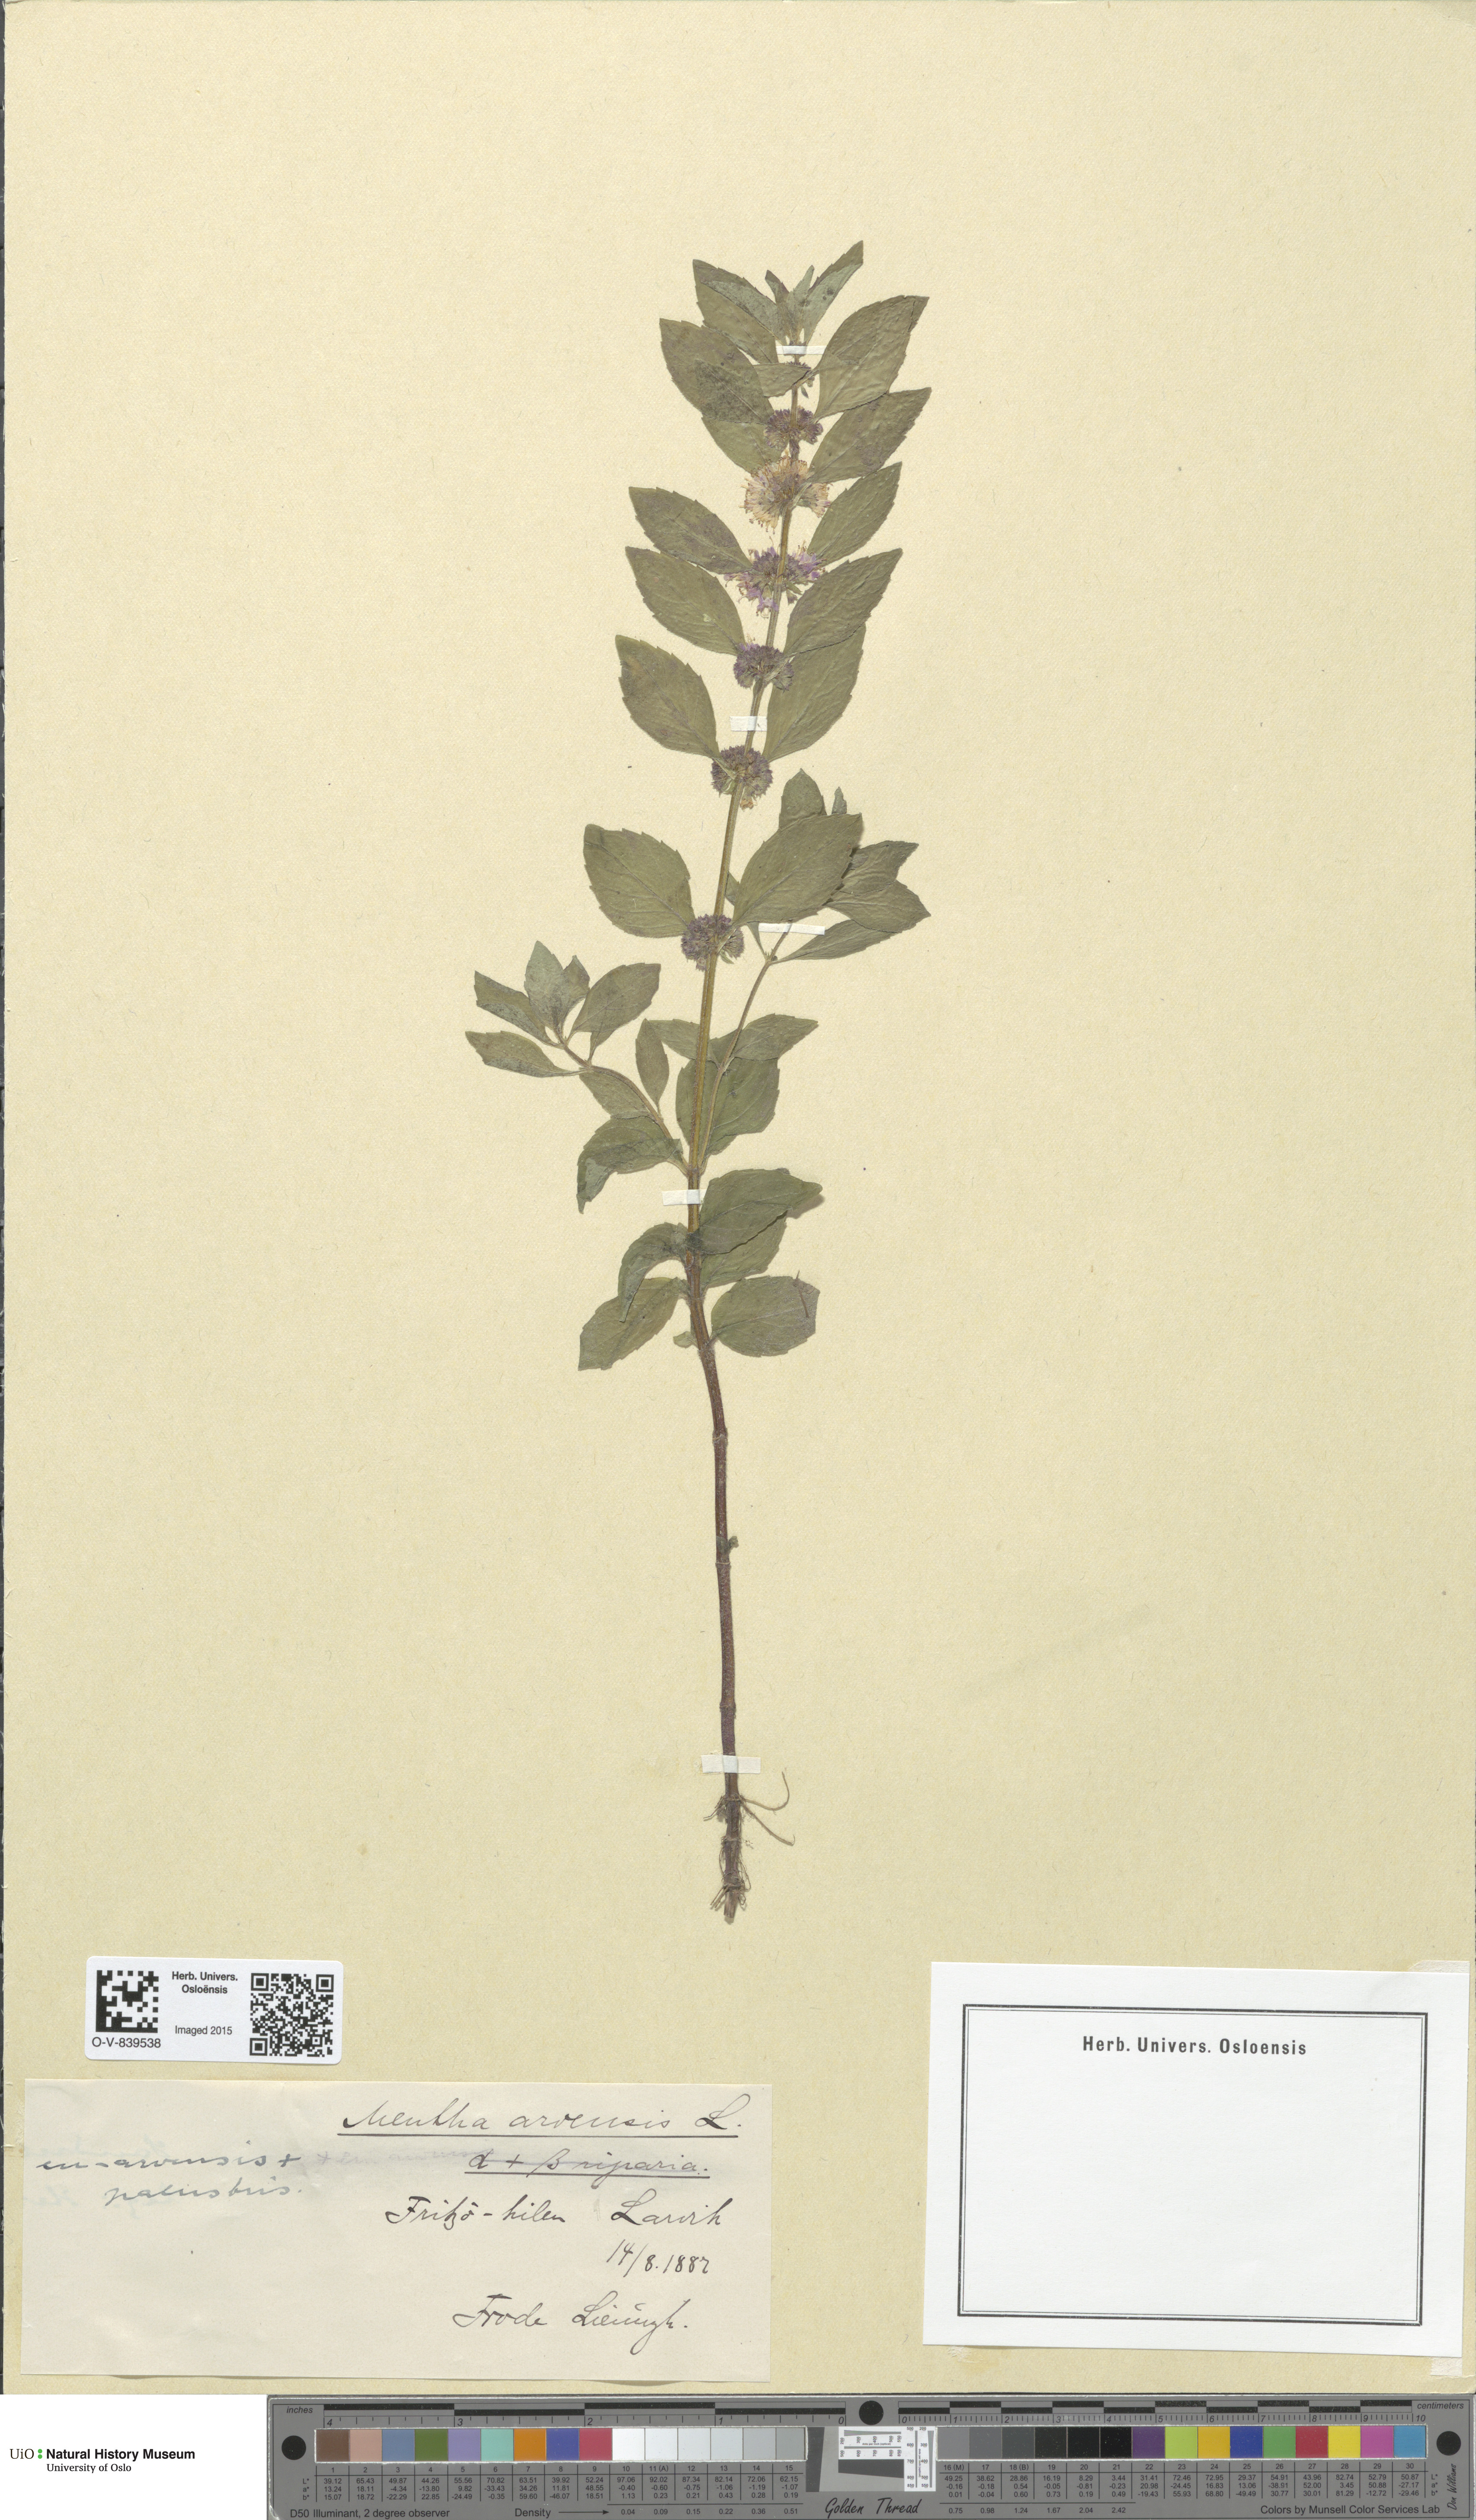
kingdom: Plantae
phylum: Tracheophyta
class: Magnoliopsida
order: Lamiales
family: Lamiaceae
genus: Mentha
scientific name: Mentha arvensis
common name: Corn mint
